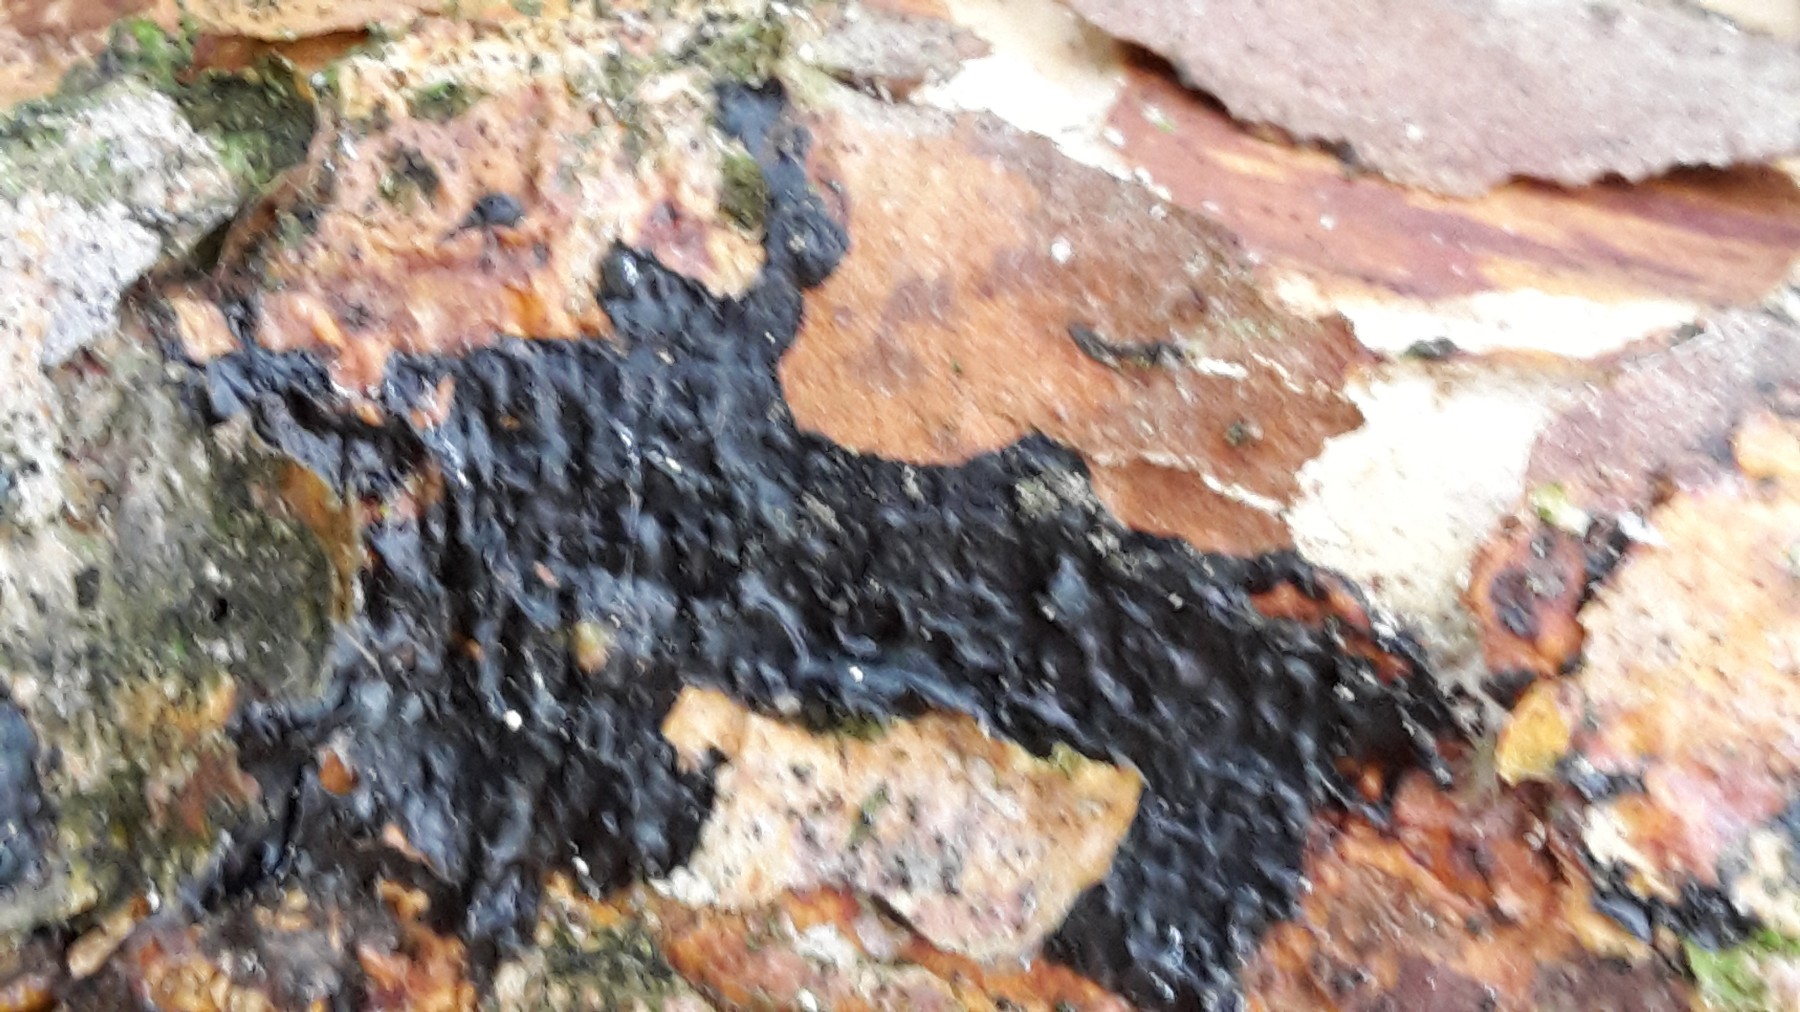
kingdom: Fungi
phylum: Basidiomycota
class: Agaricomycetes
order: Auriculariales
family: Auriculariaceae
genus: Exidia
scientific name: Exidia pithya
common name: gran-bævretop
